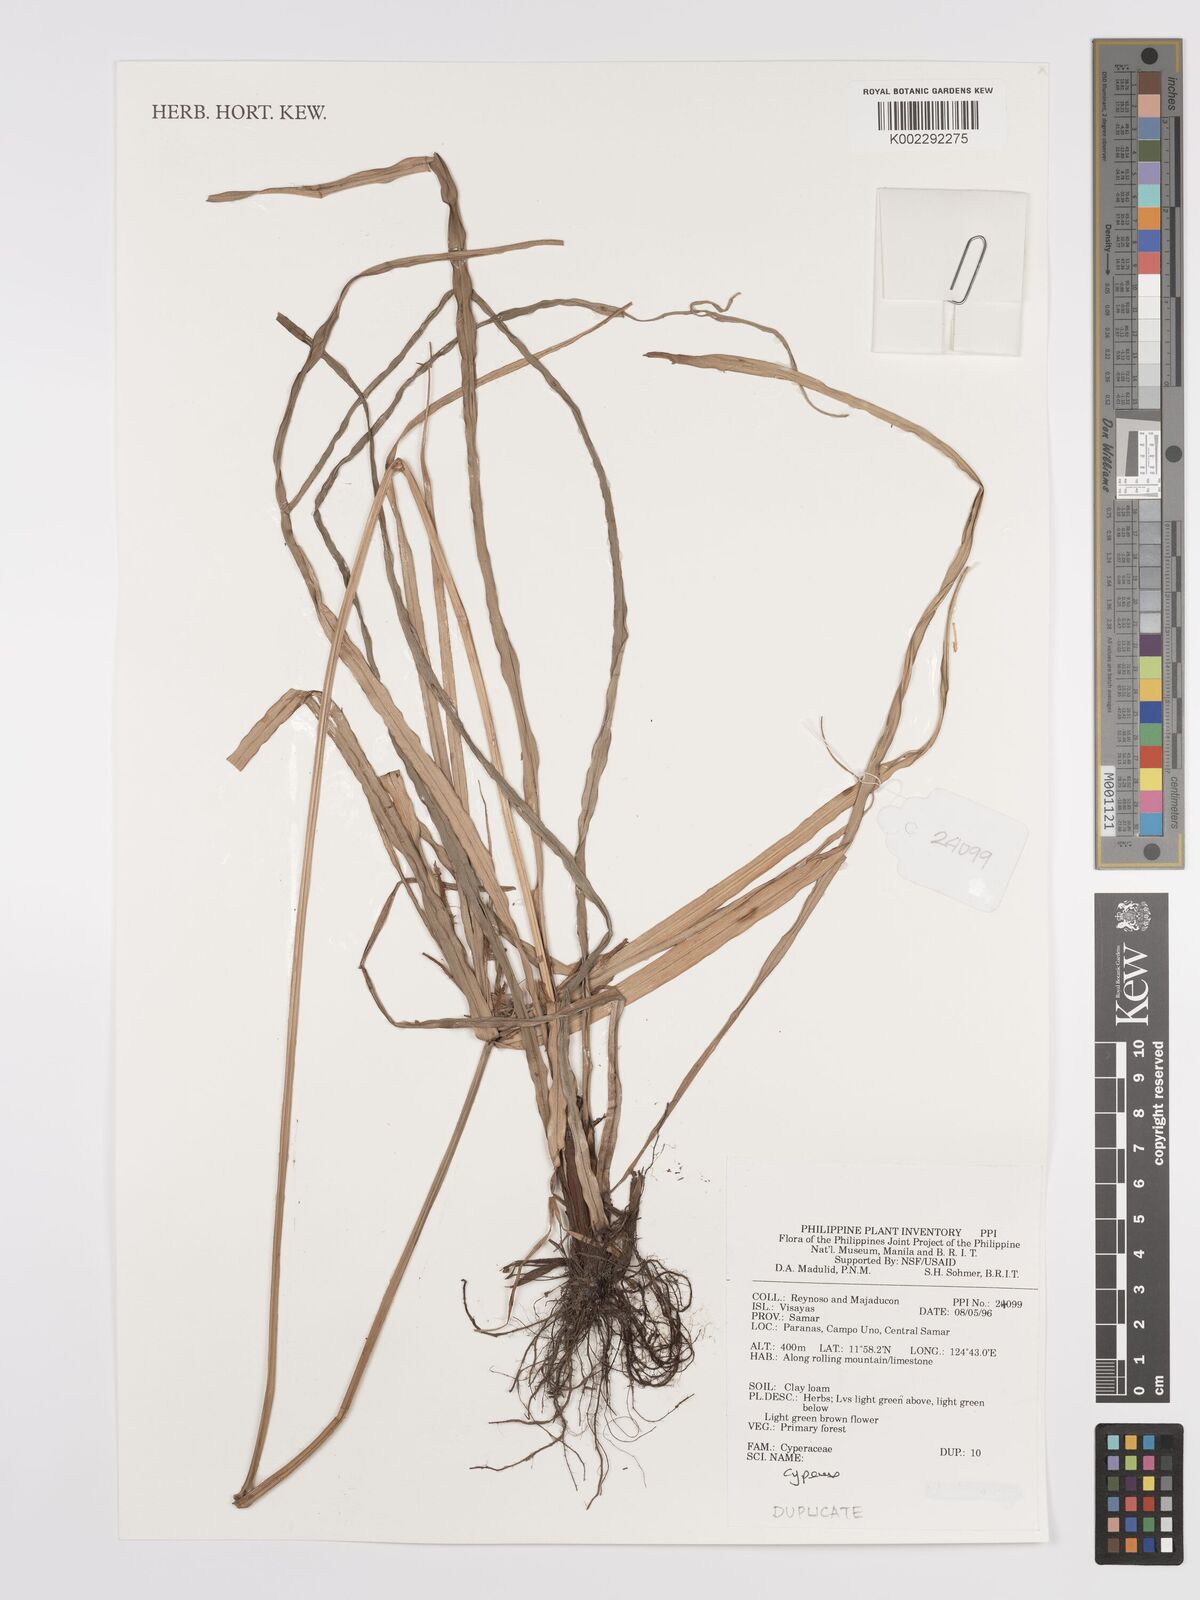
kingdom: Plantae
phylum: Tracheophyta
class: Liliopsida
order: Poales
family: Cyperaceae
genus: Cyperus
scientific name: Cyperus
